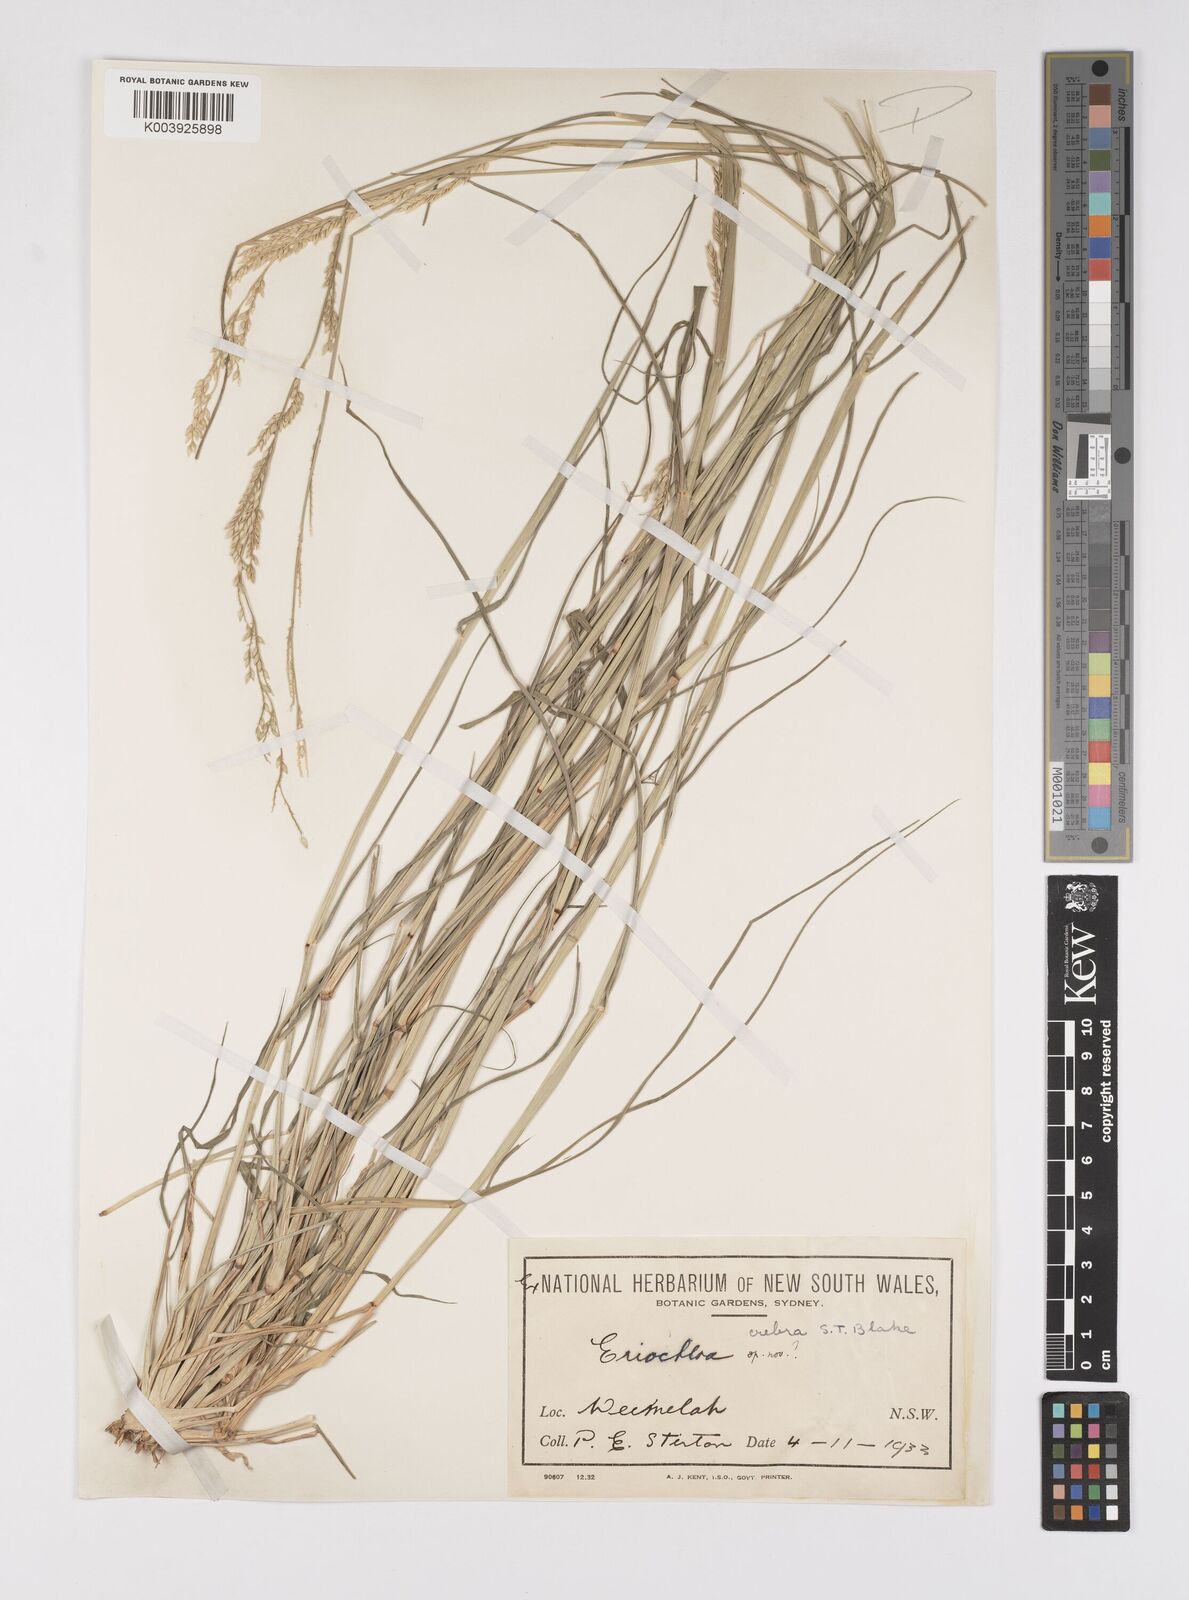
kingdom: Plantae
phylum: Tracheophyta
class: Liliopsida
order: Poales
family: Poaceae
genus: Eriochloa
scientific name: Eriochloa crebra
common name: Cup grass
